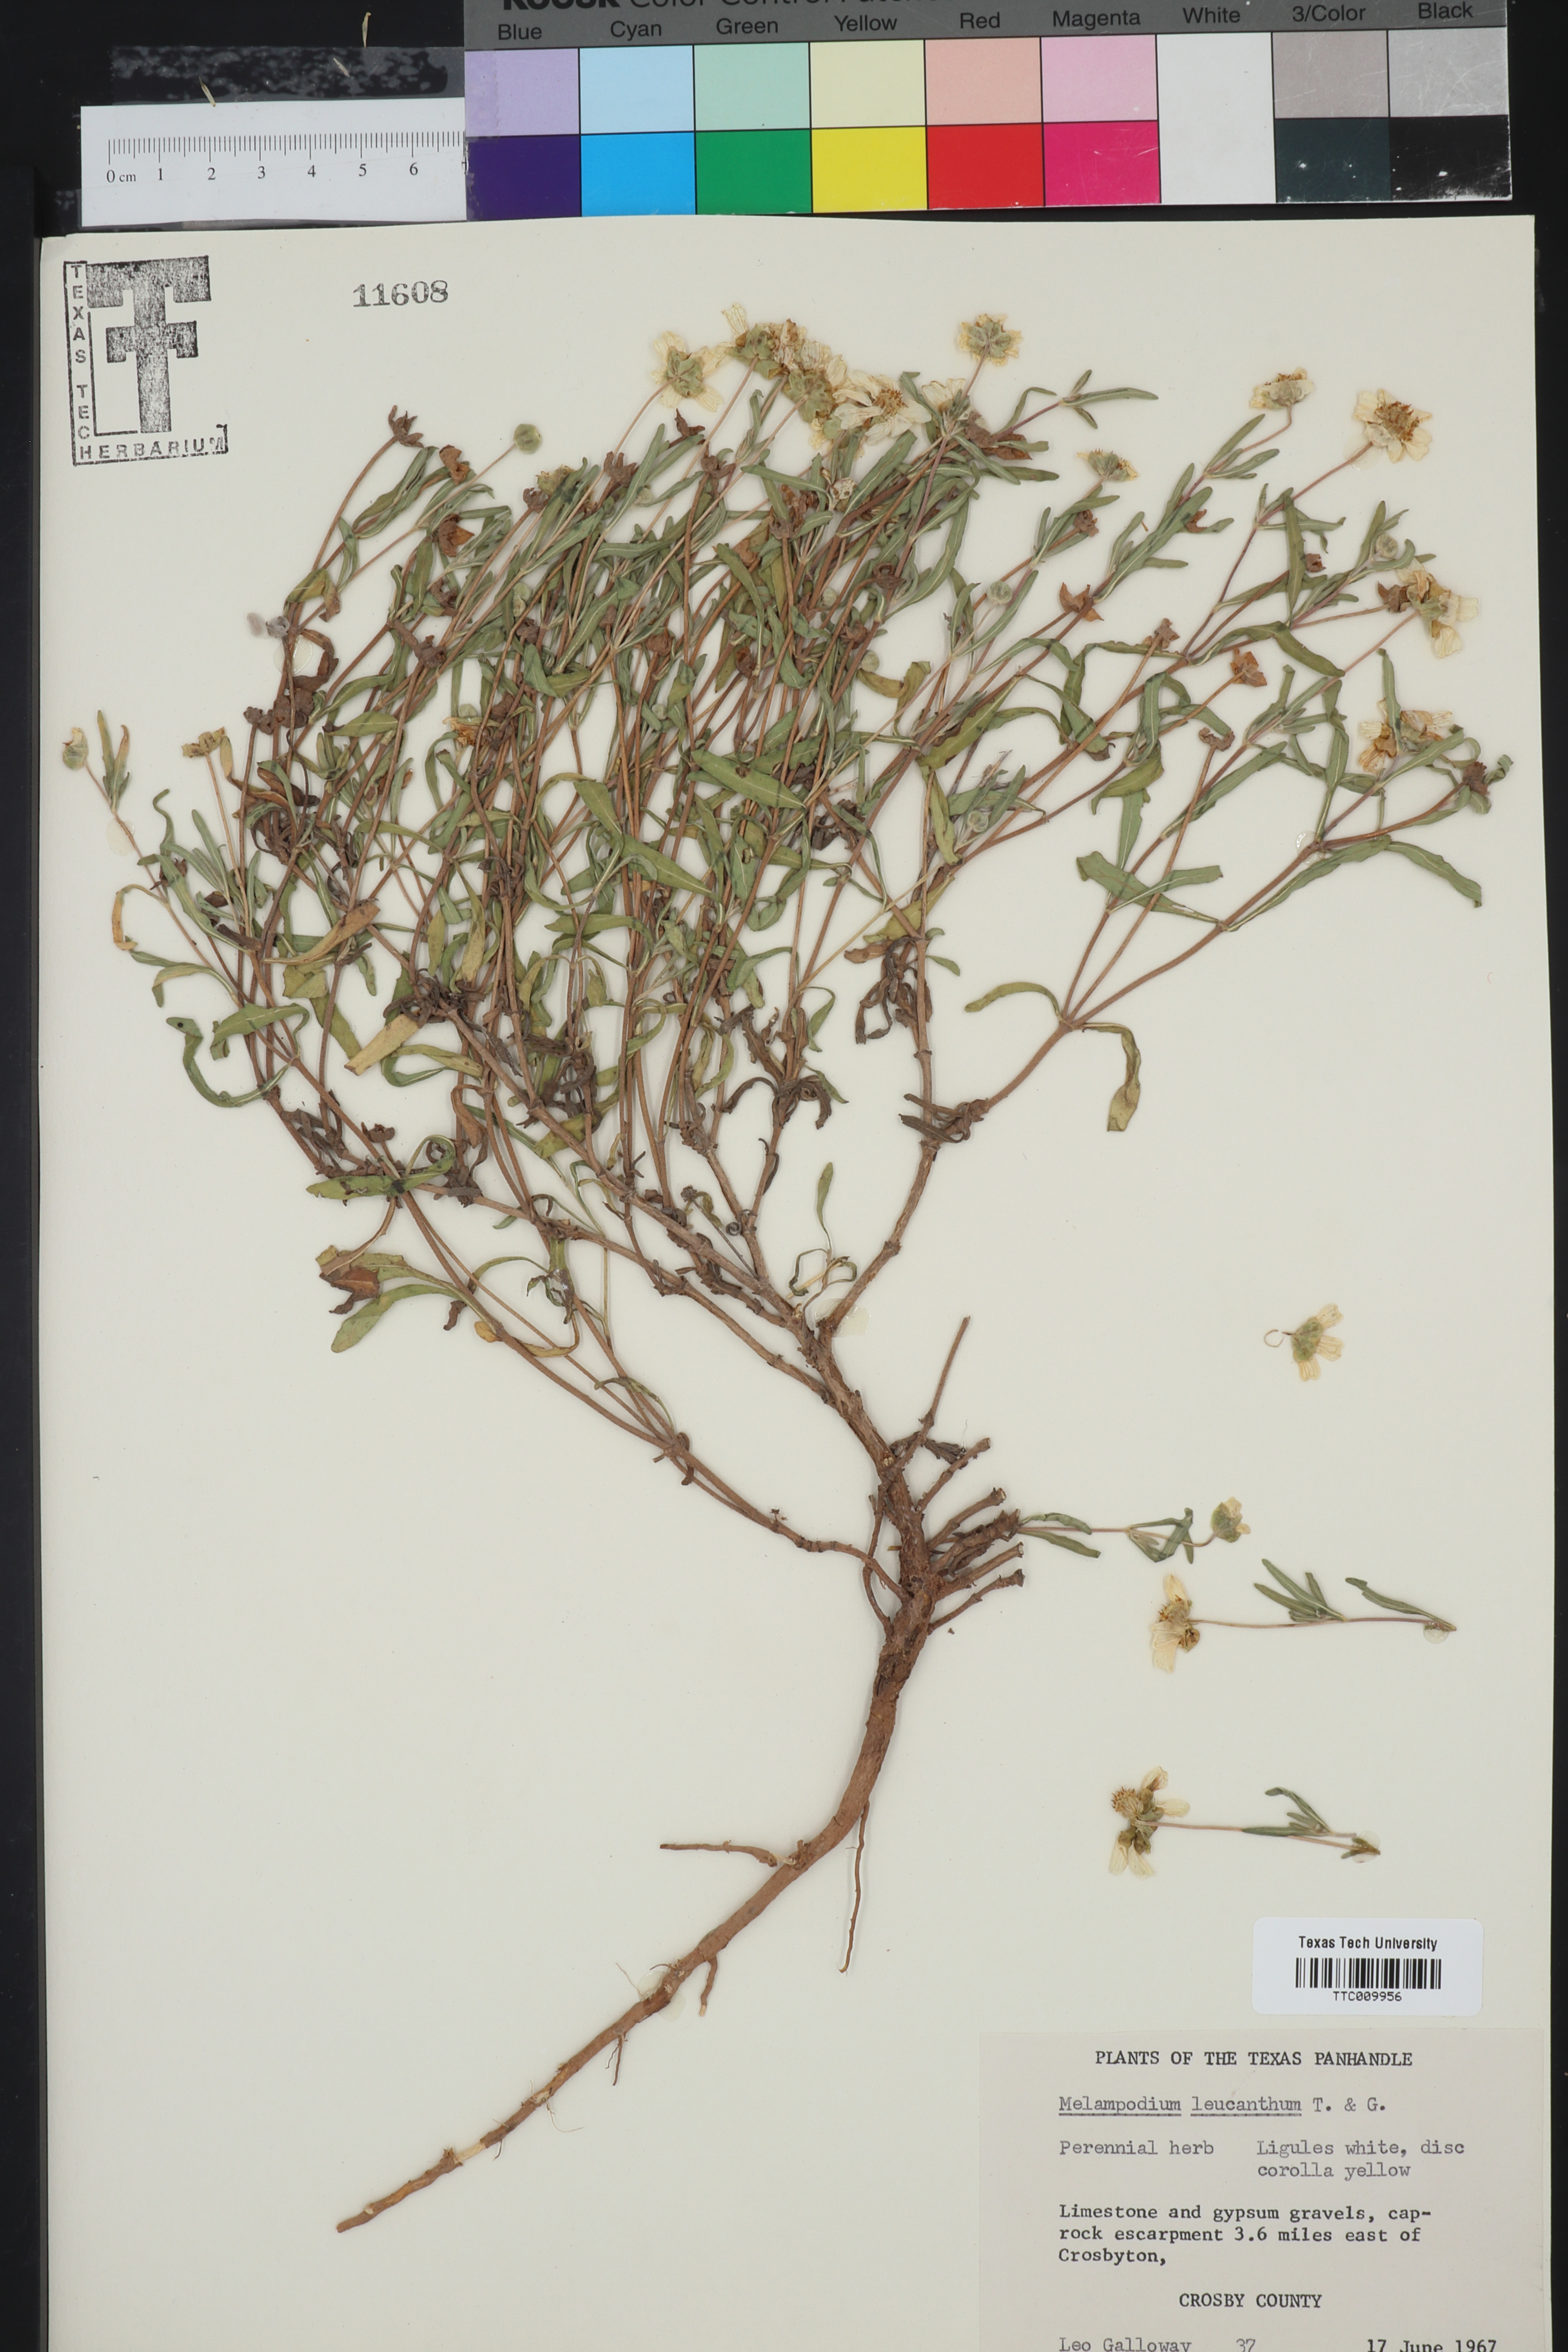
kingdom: Plantae
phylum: Tracheophyta
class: Magnoliopsida
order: Asterales
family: Asteraceae
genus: Melampodium
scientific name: Melampodium leucanthum
